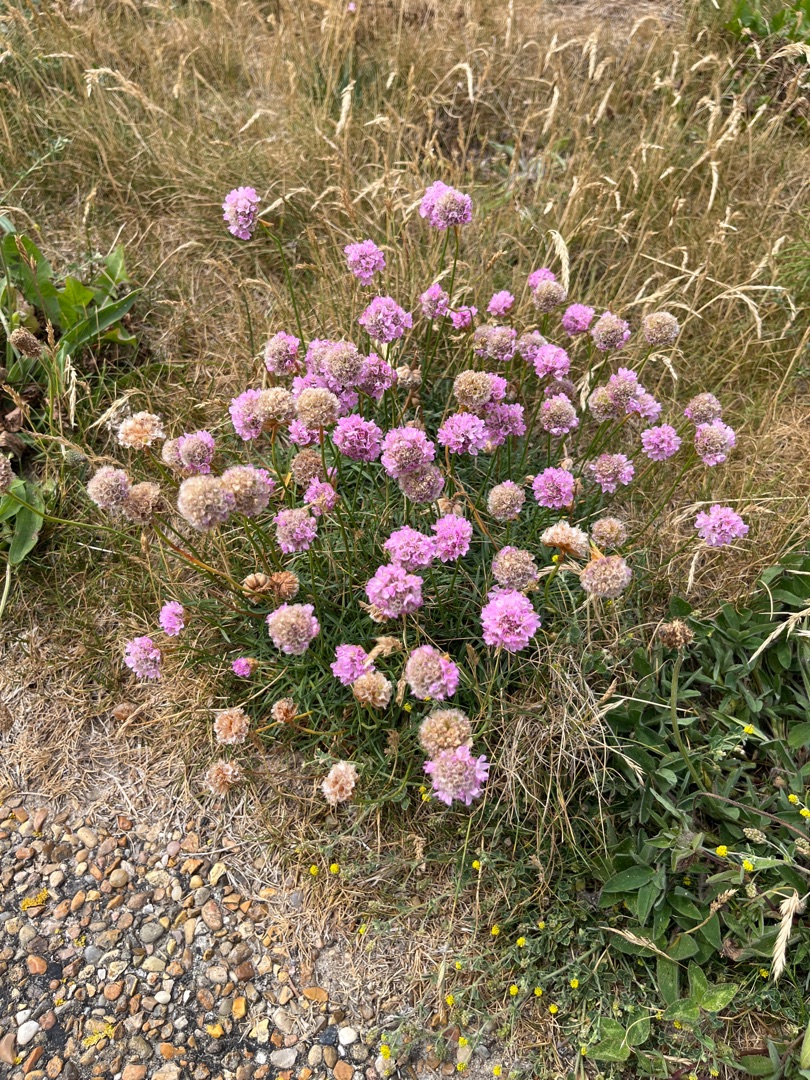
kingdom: Plantae
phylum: Tracheophyta
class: Magnoliopsida
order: Caryophyllales
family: Plumbaginaceae
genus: Armeria
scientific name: Armeria maritima
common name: Engelskgræs
